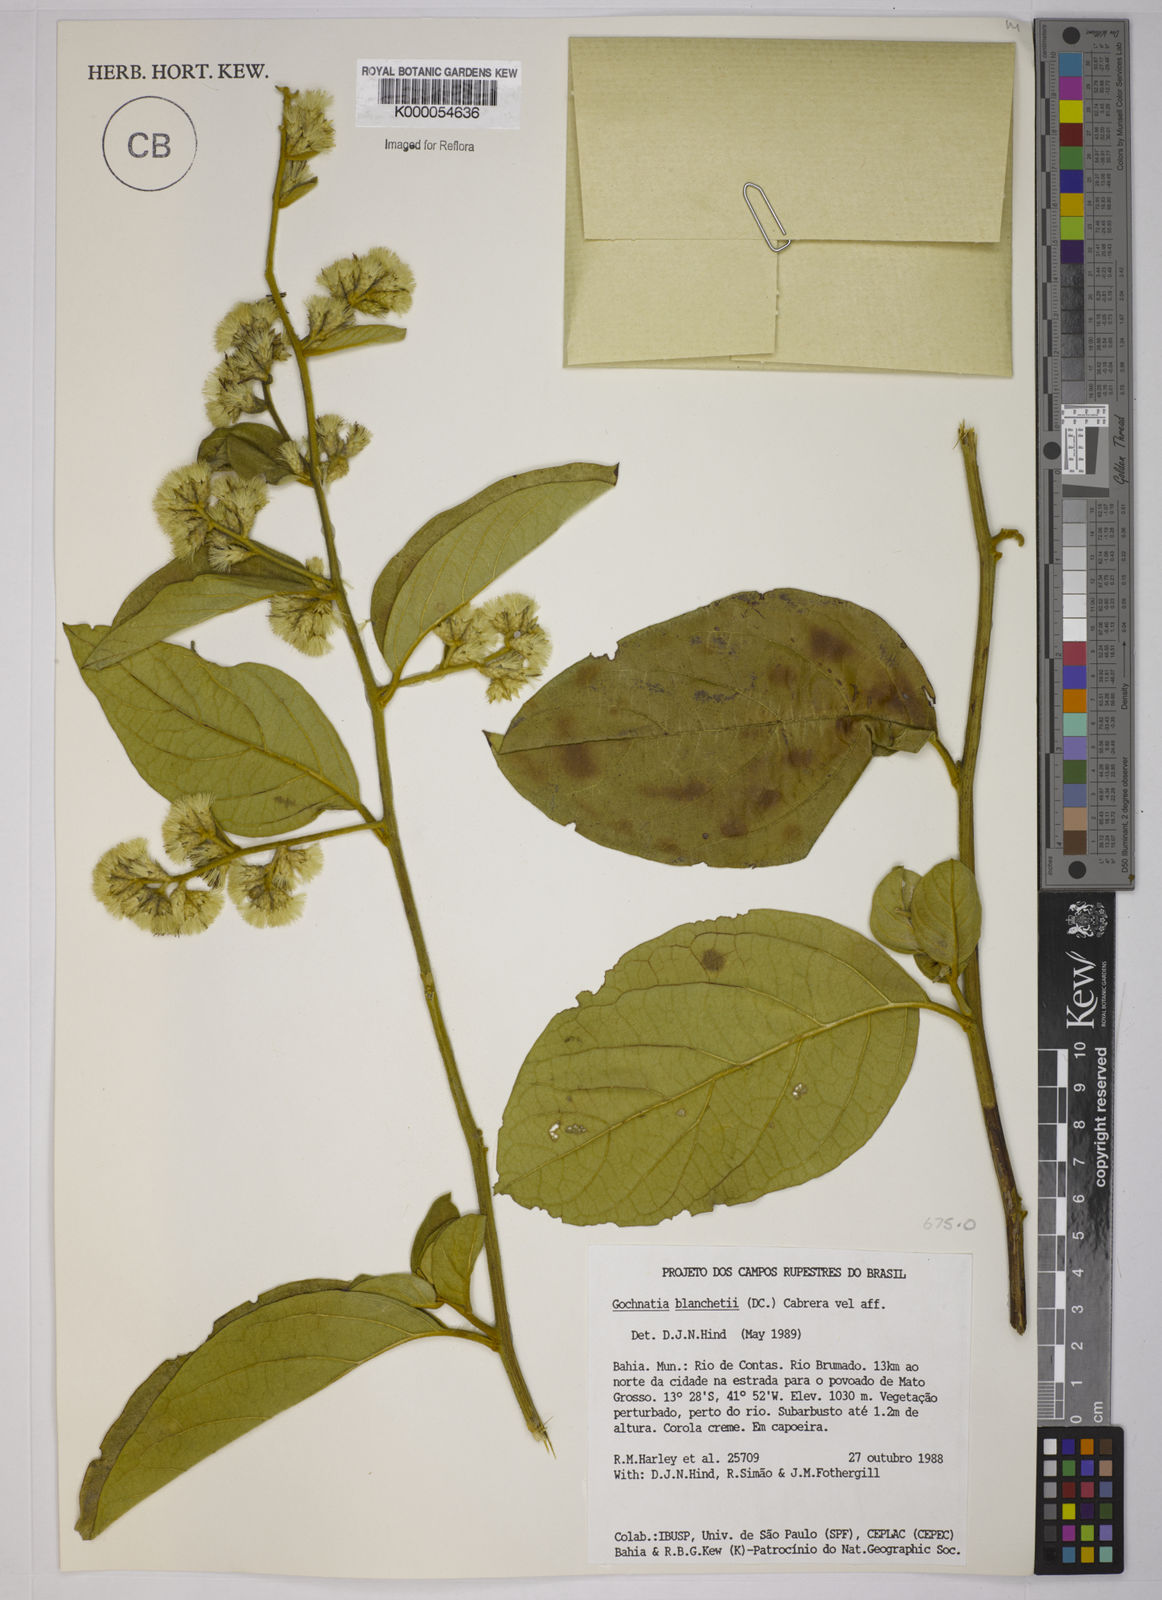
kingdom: Plantae
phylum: Tracheophyta
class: Magnoliopsida
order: Asterales
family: Asteraceae
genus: Moquiniastrum
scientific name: Moquiniastrum blanchetianum
